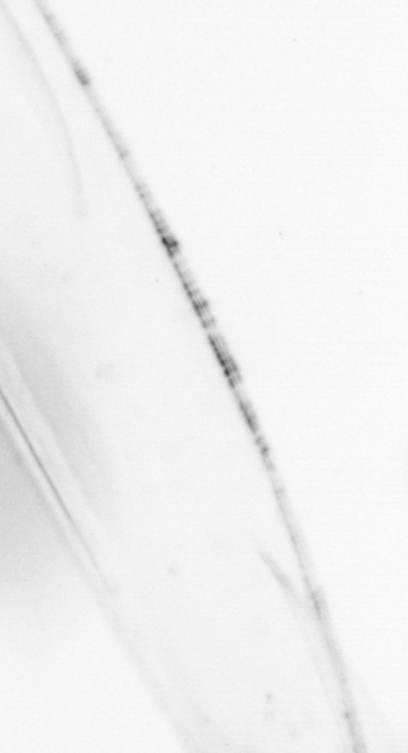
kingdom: Animalia
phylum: Arthropoda
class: Copepoda
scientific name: Copepoda
